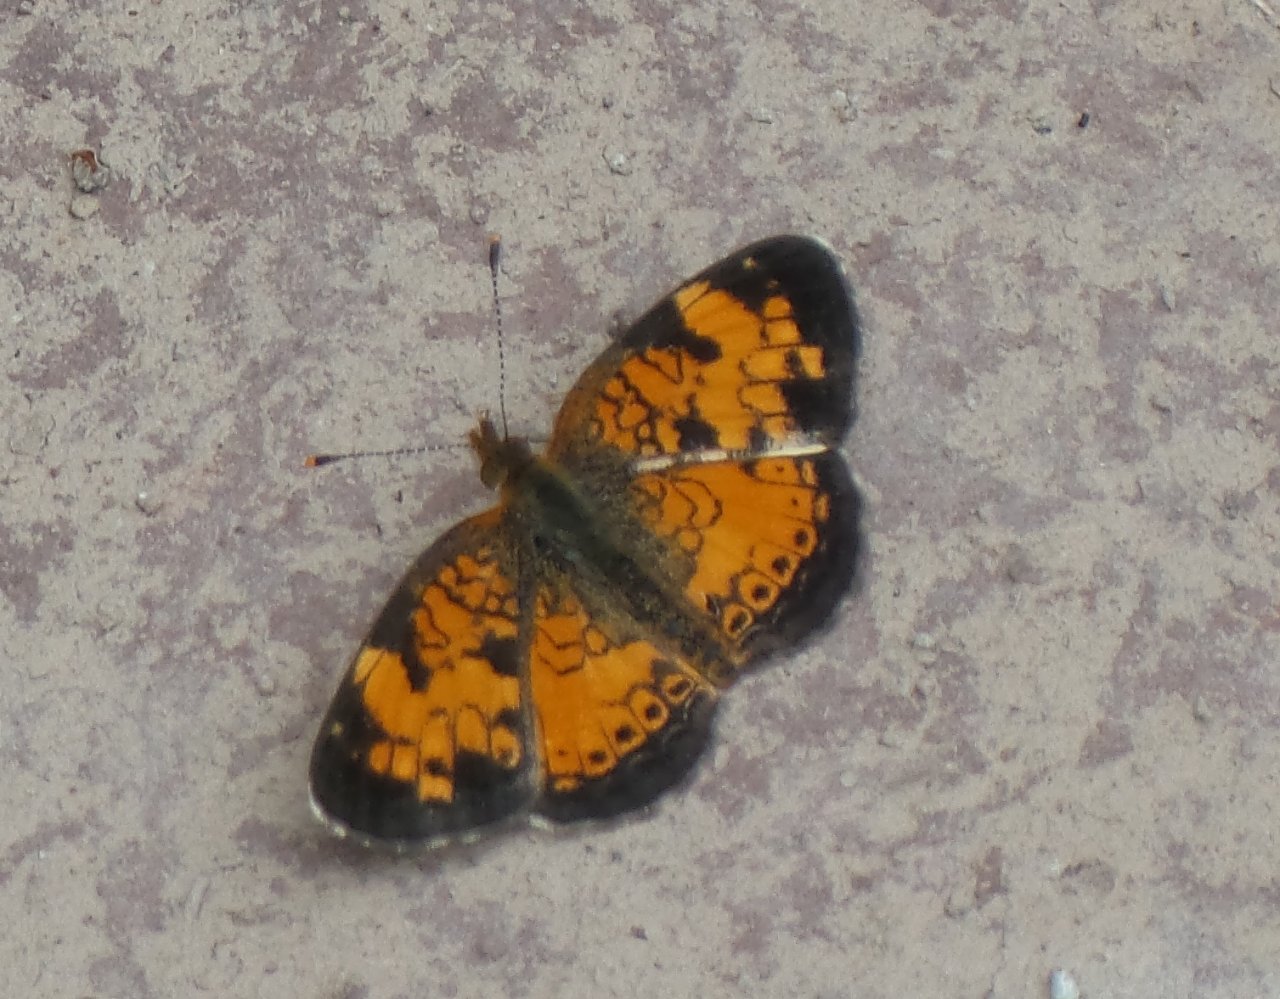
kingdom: Animalia
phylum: Arthropoda
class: Insecta
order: Lepidoptera
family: Nymphalidae
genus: Phyciodes
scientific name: Phyciodes tharos
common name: Northern Crescent
